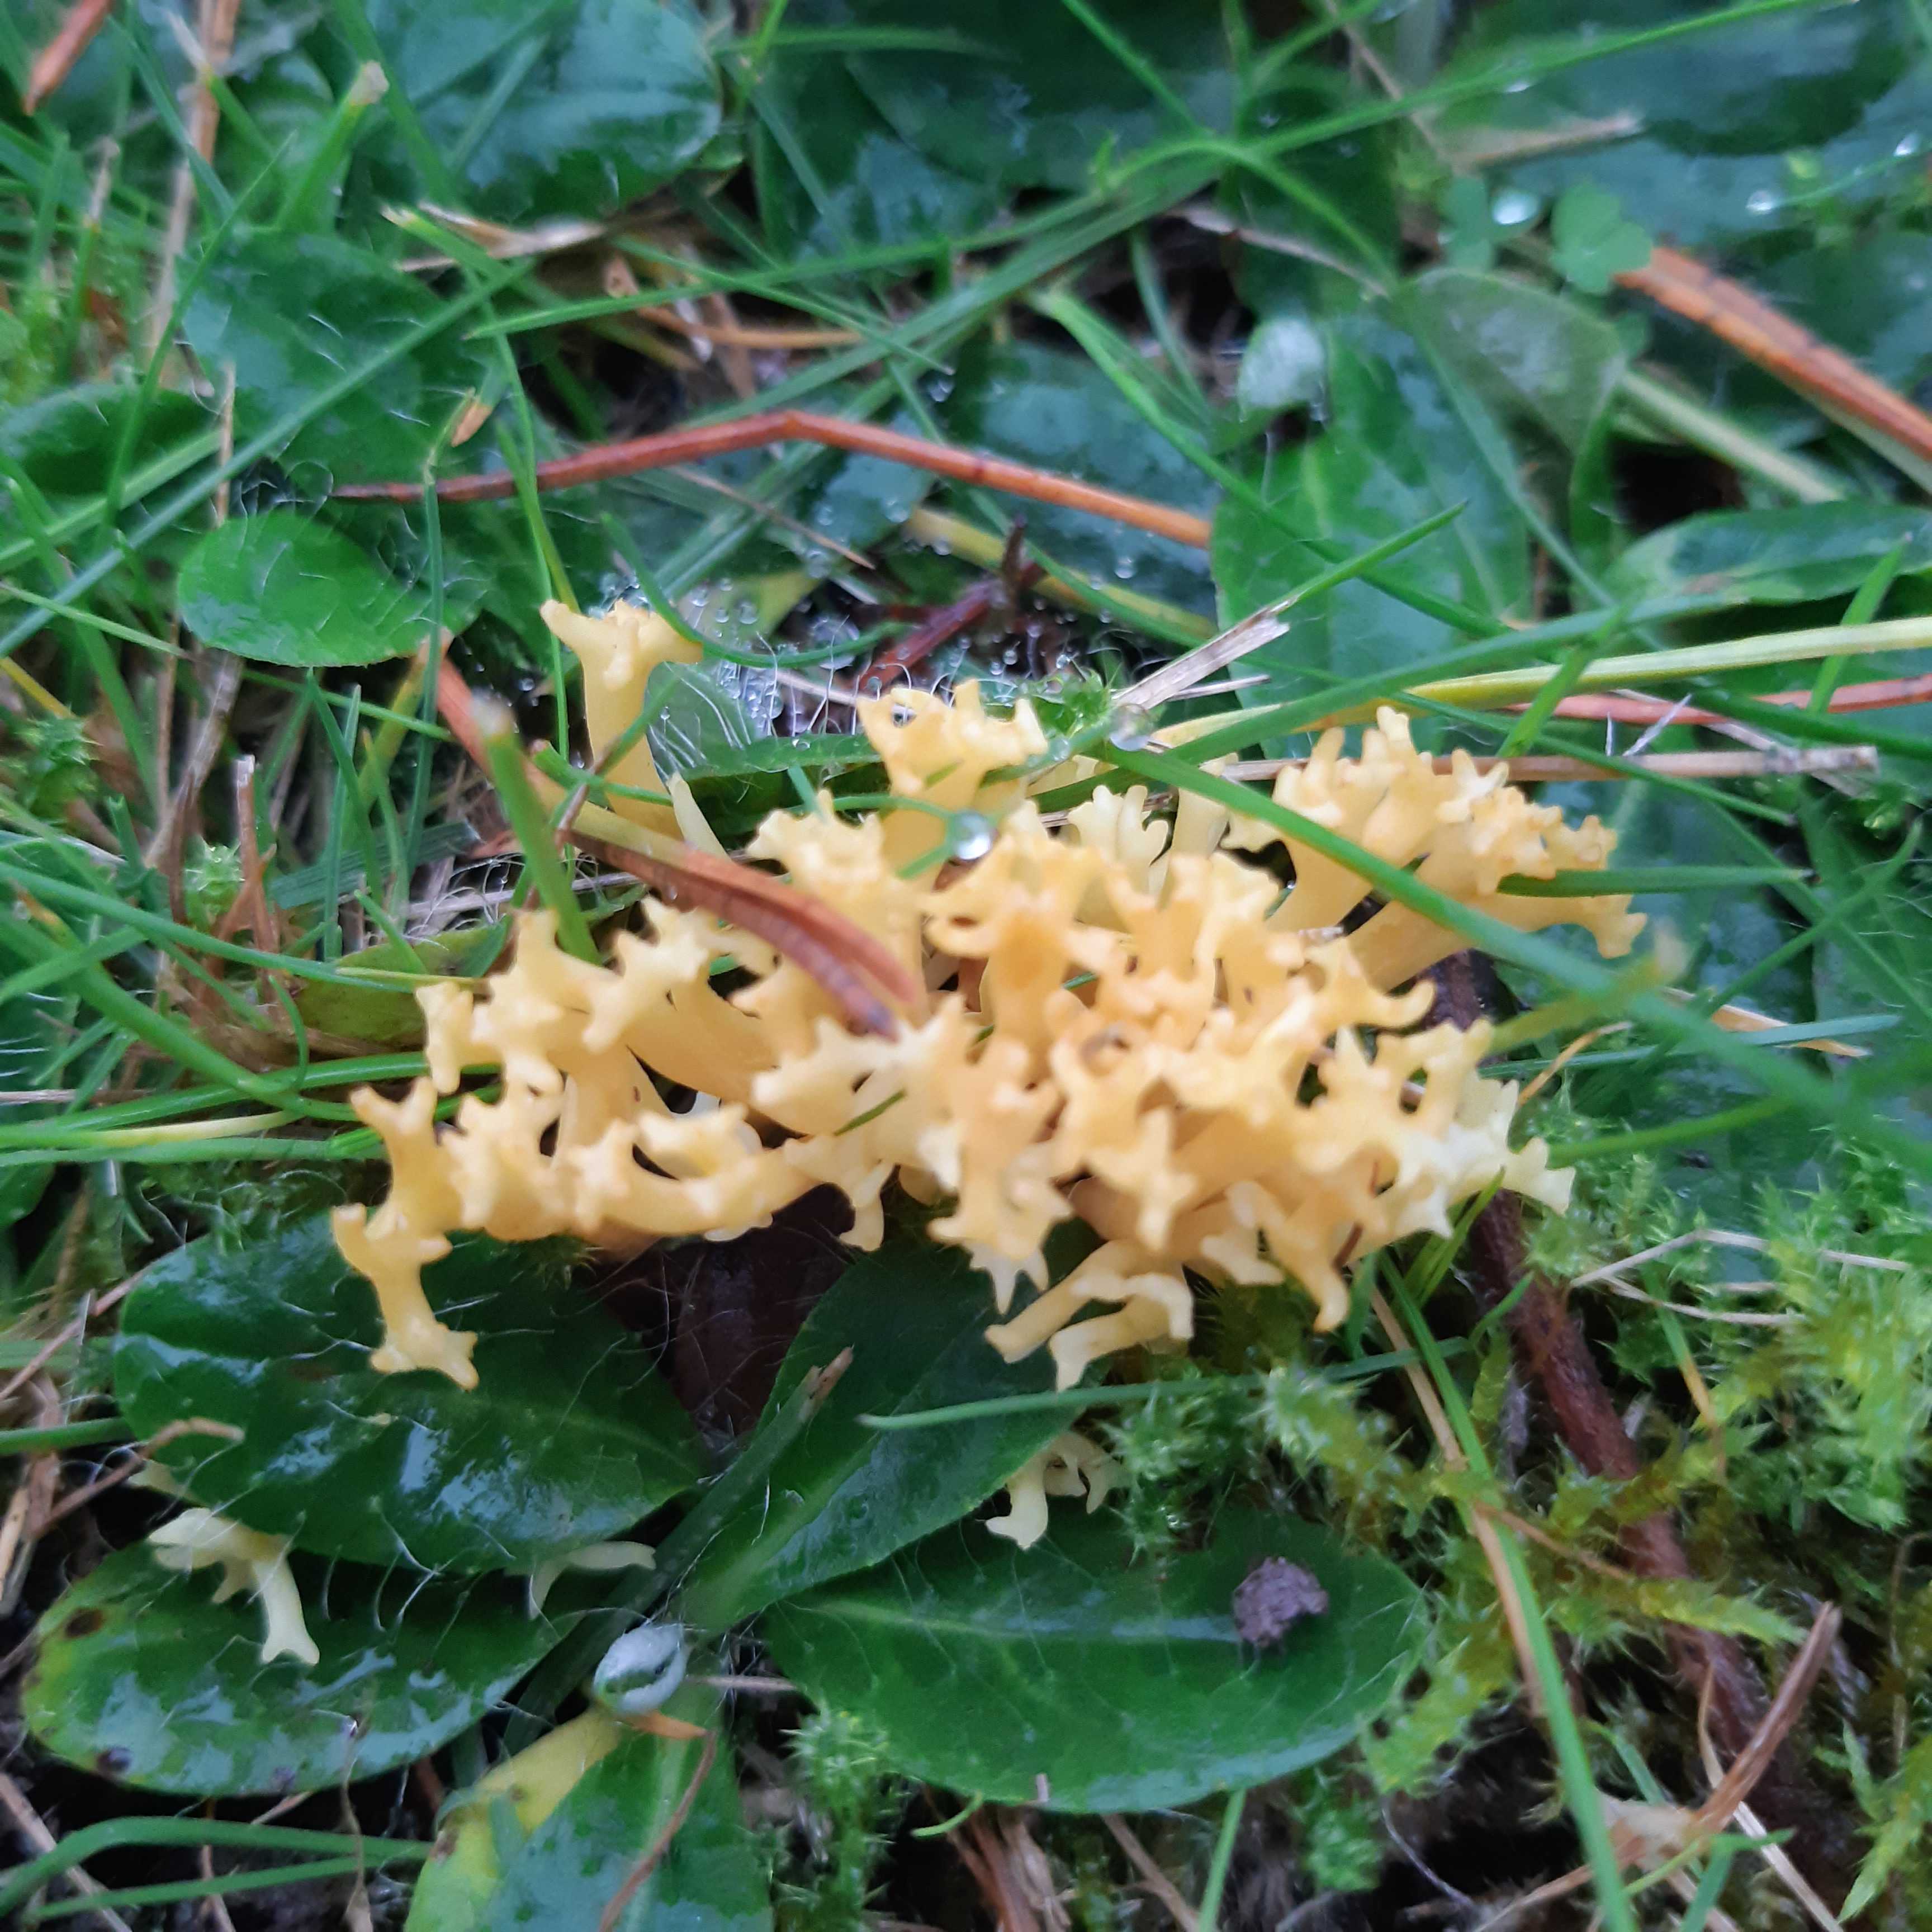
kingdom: Fungi
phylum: Basidiomycota
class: Agaricomycetes
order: Agaricales
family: Clavariaceae
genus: Clavulinopsis
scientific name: Clavulinopsis corniculata
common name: eng-køllesvamp
